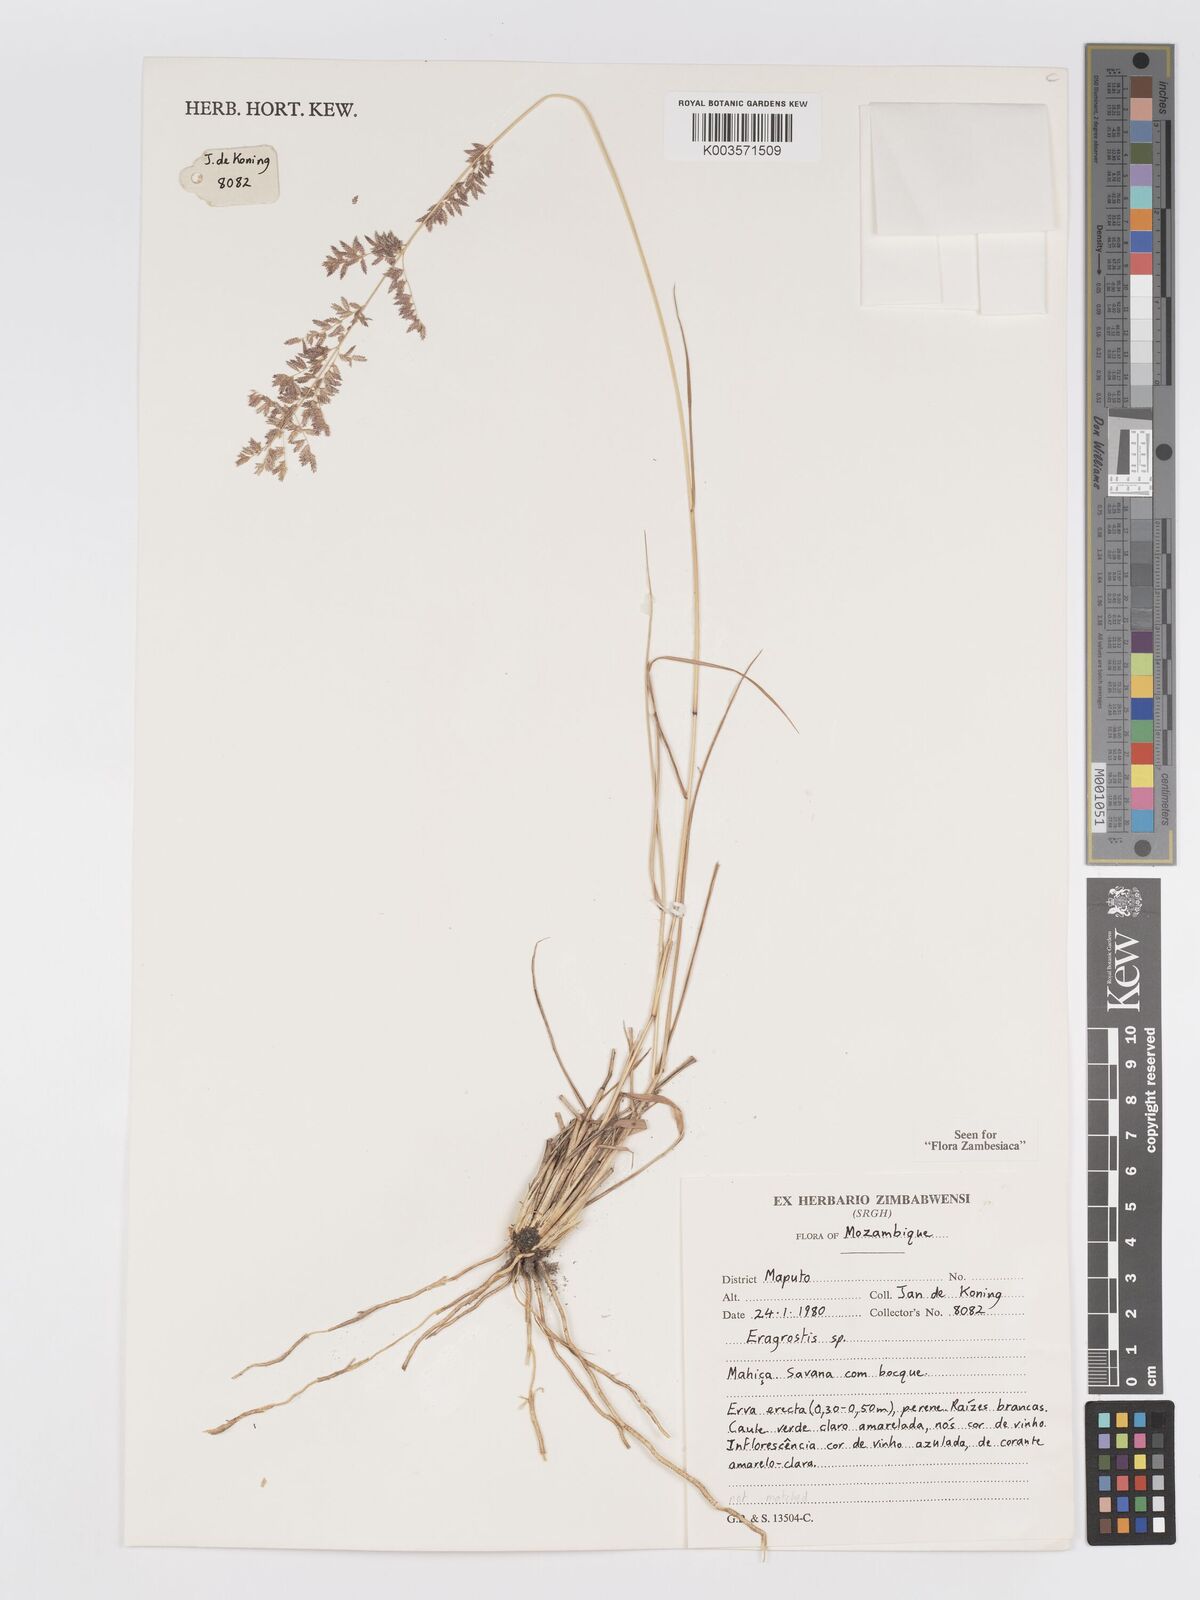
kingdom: Plantae
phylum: Tracheophyta
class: Liliopsida
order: Poales
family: Poaceae
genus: Eragrostis
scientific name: Eragrostis gummiflua
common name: Gum grass
